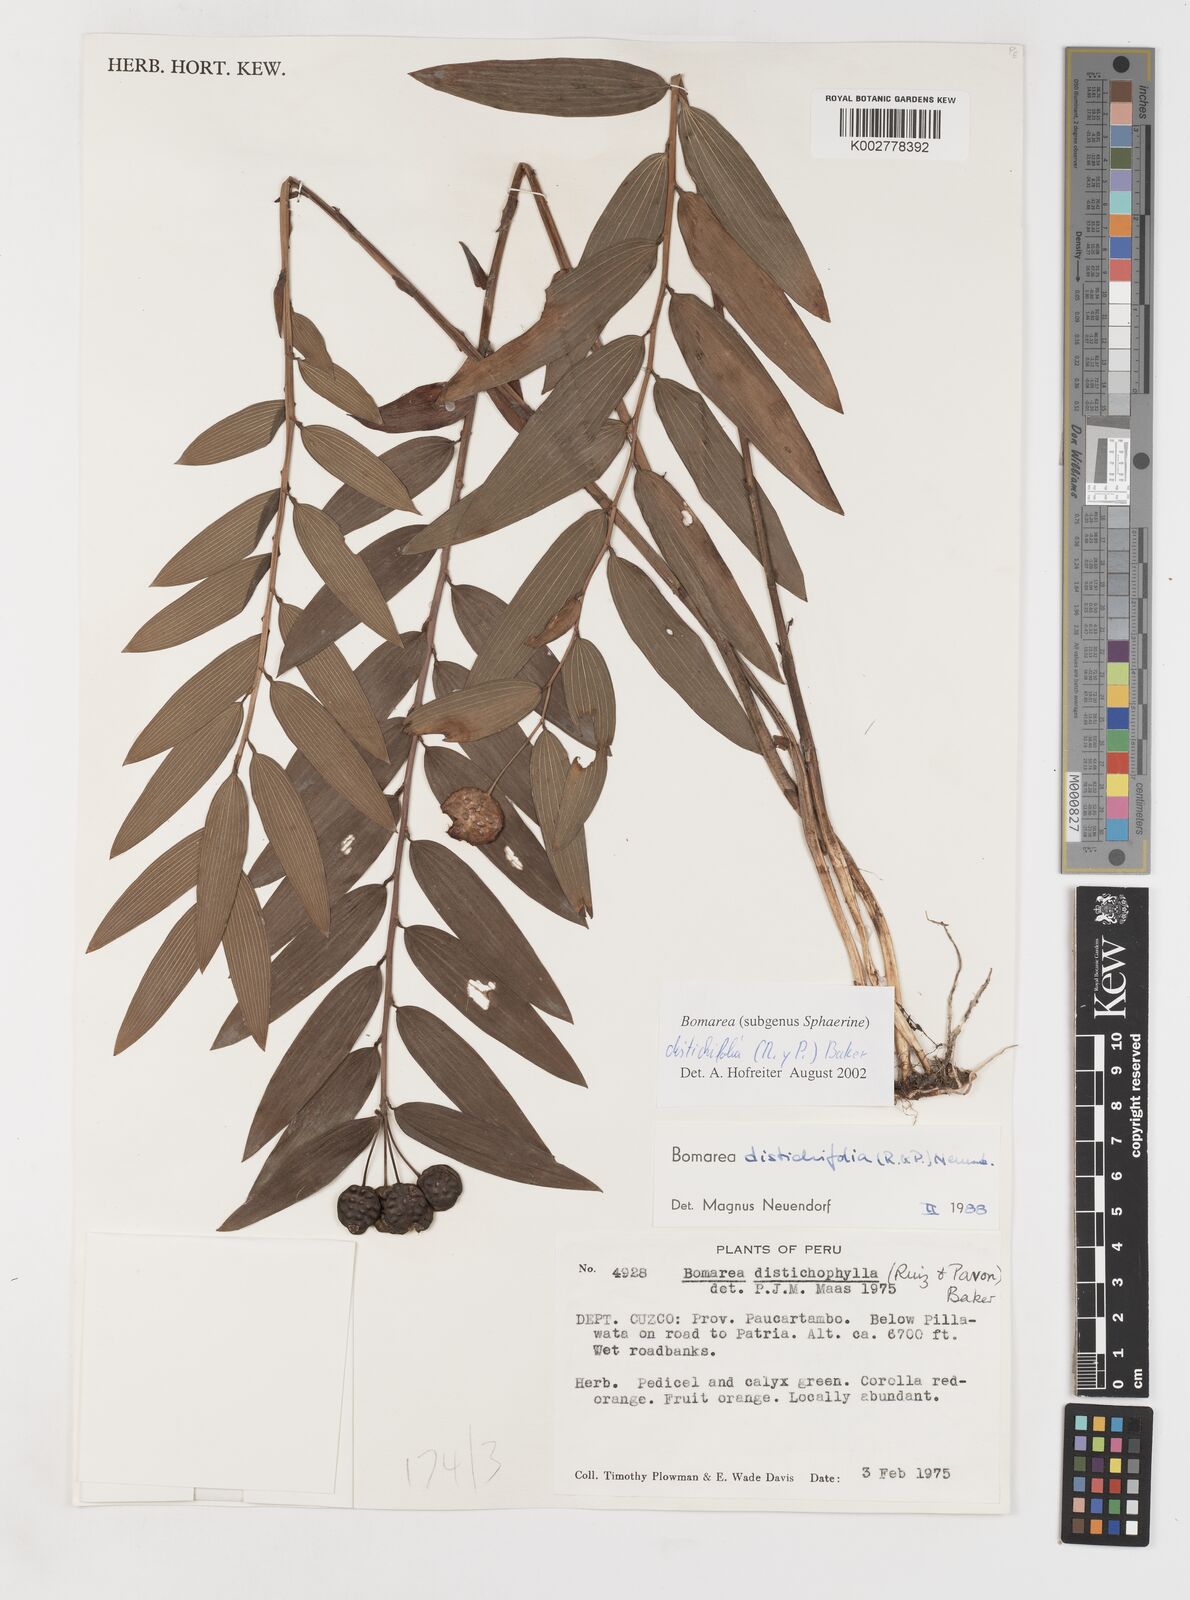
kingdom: Plantae
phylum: Tracheophyta
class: Liliopsida
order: Liliales
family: Alstroemeriaceae
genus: Bomarea
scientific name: Bomarea distichifolia
